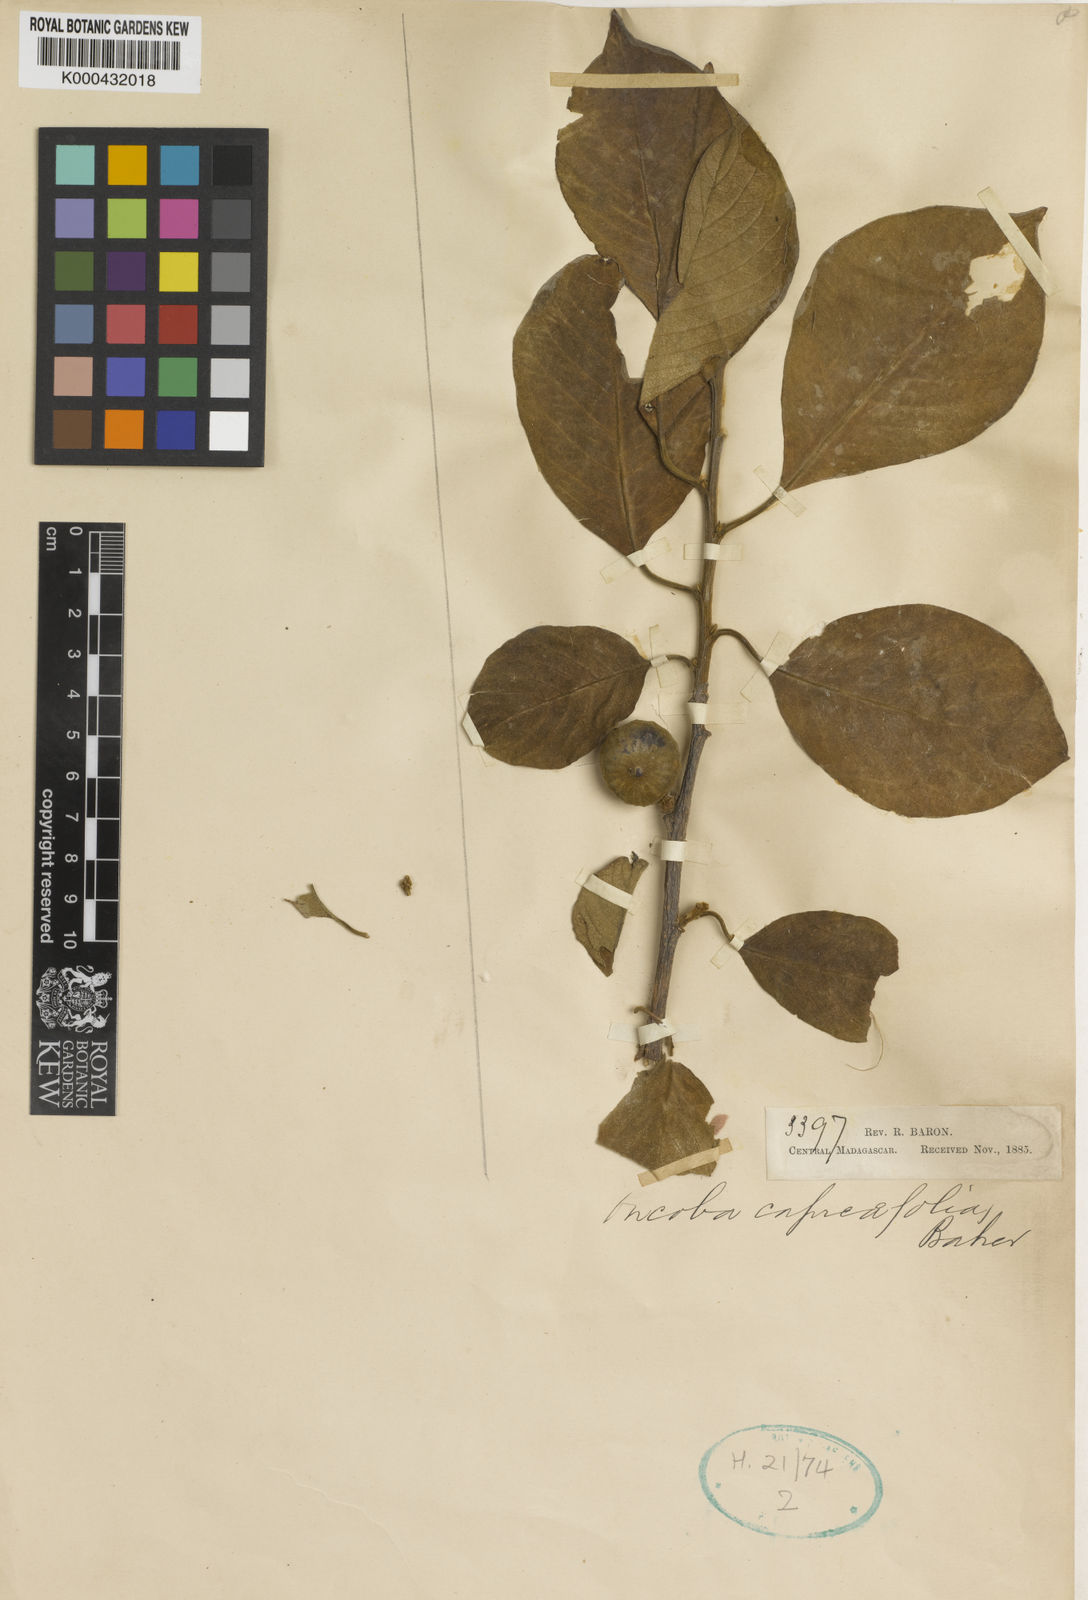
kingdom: Plantae
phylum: Tracheophyta
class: Magnoliopsida
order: Sapindales
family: Meliaceae
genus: Turraea
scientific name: Turraea sericea
